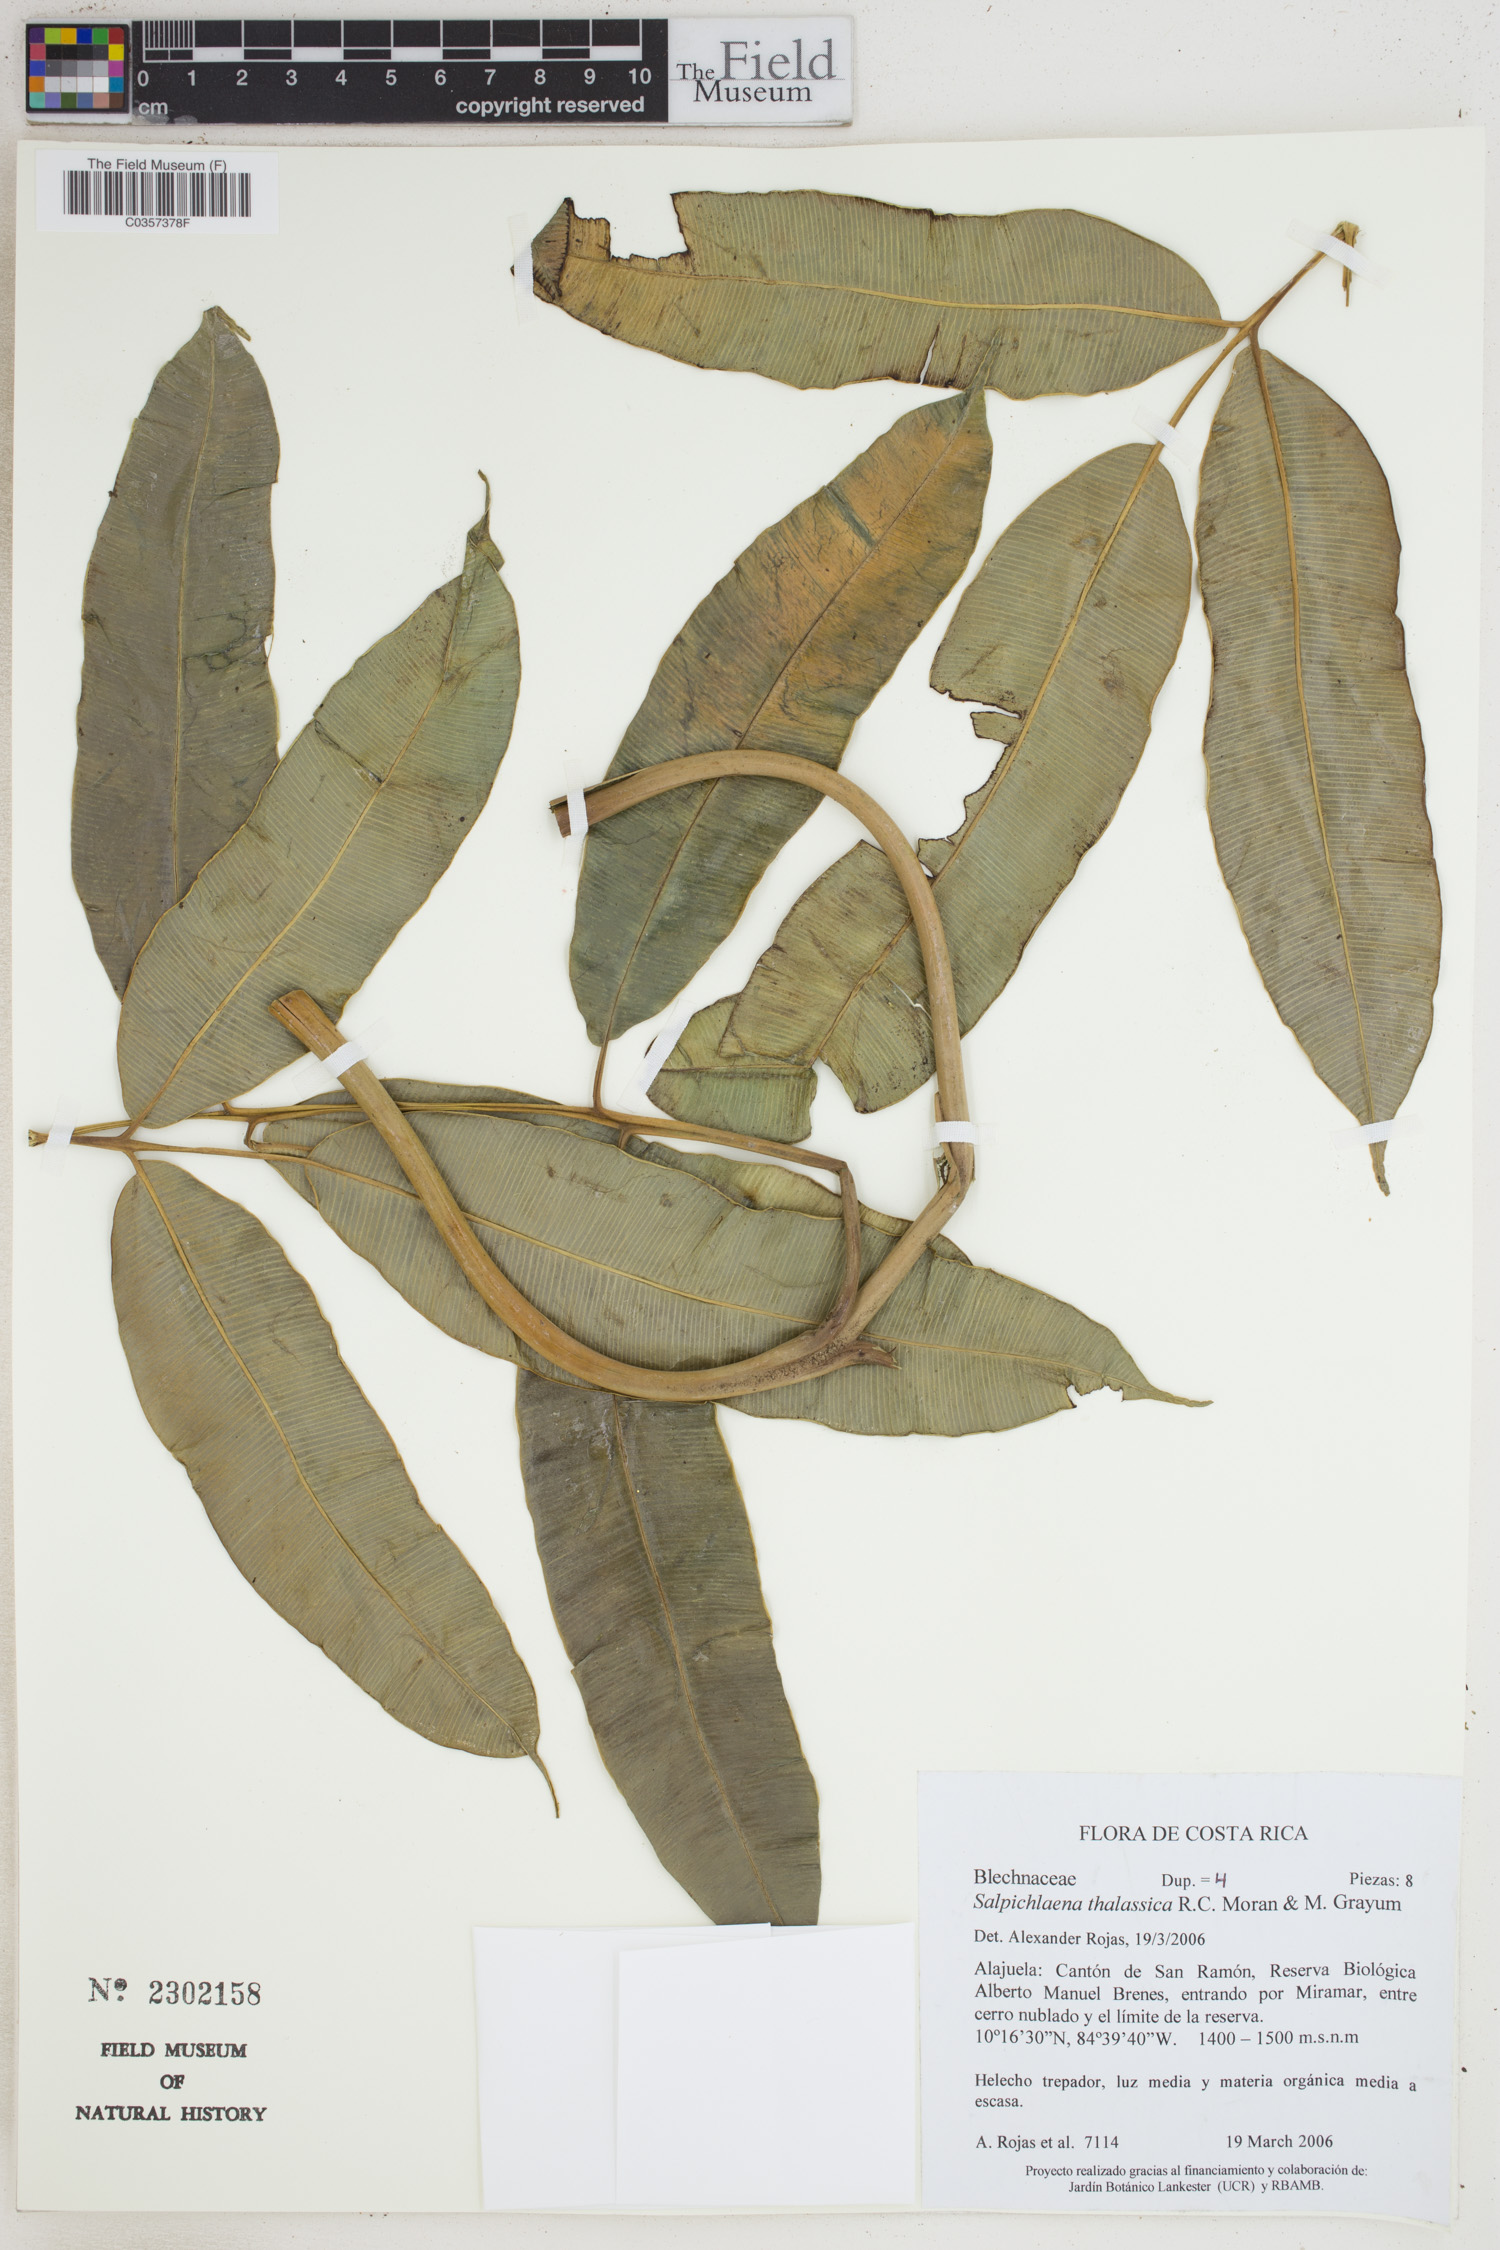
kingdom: Plantae
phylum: Tracheophyta
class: Polypodiopsida
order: Polypodiales
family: Blechnaceae
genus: Salpichlaena
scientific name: Salpichlaena volubilis
